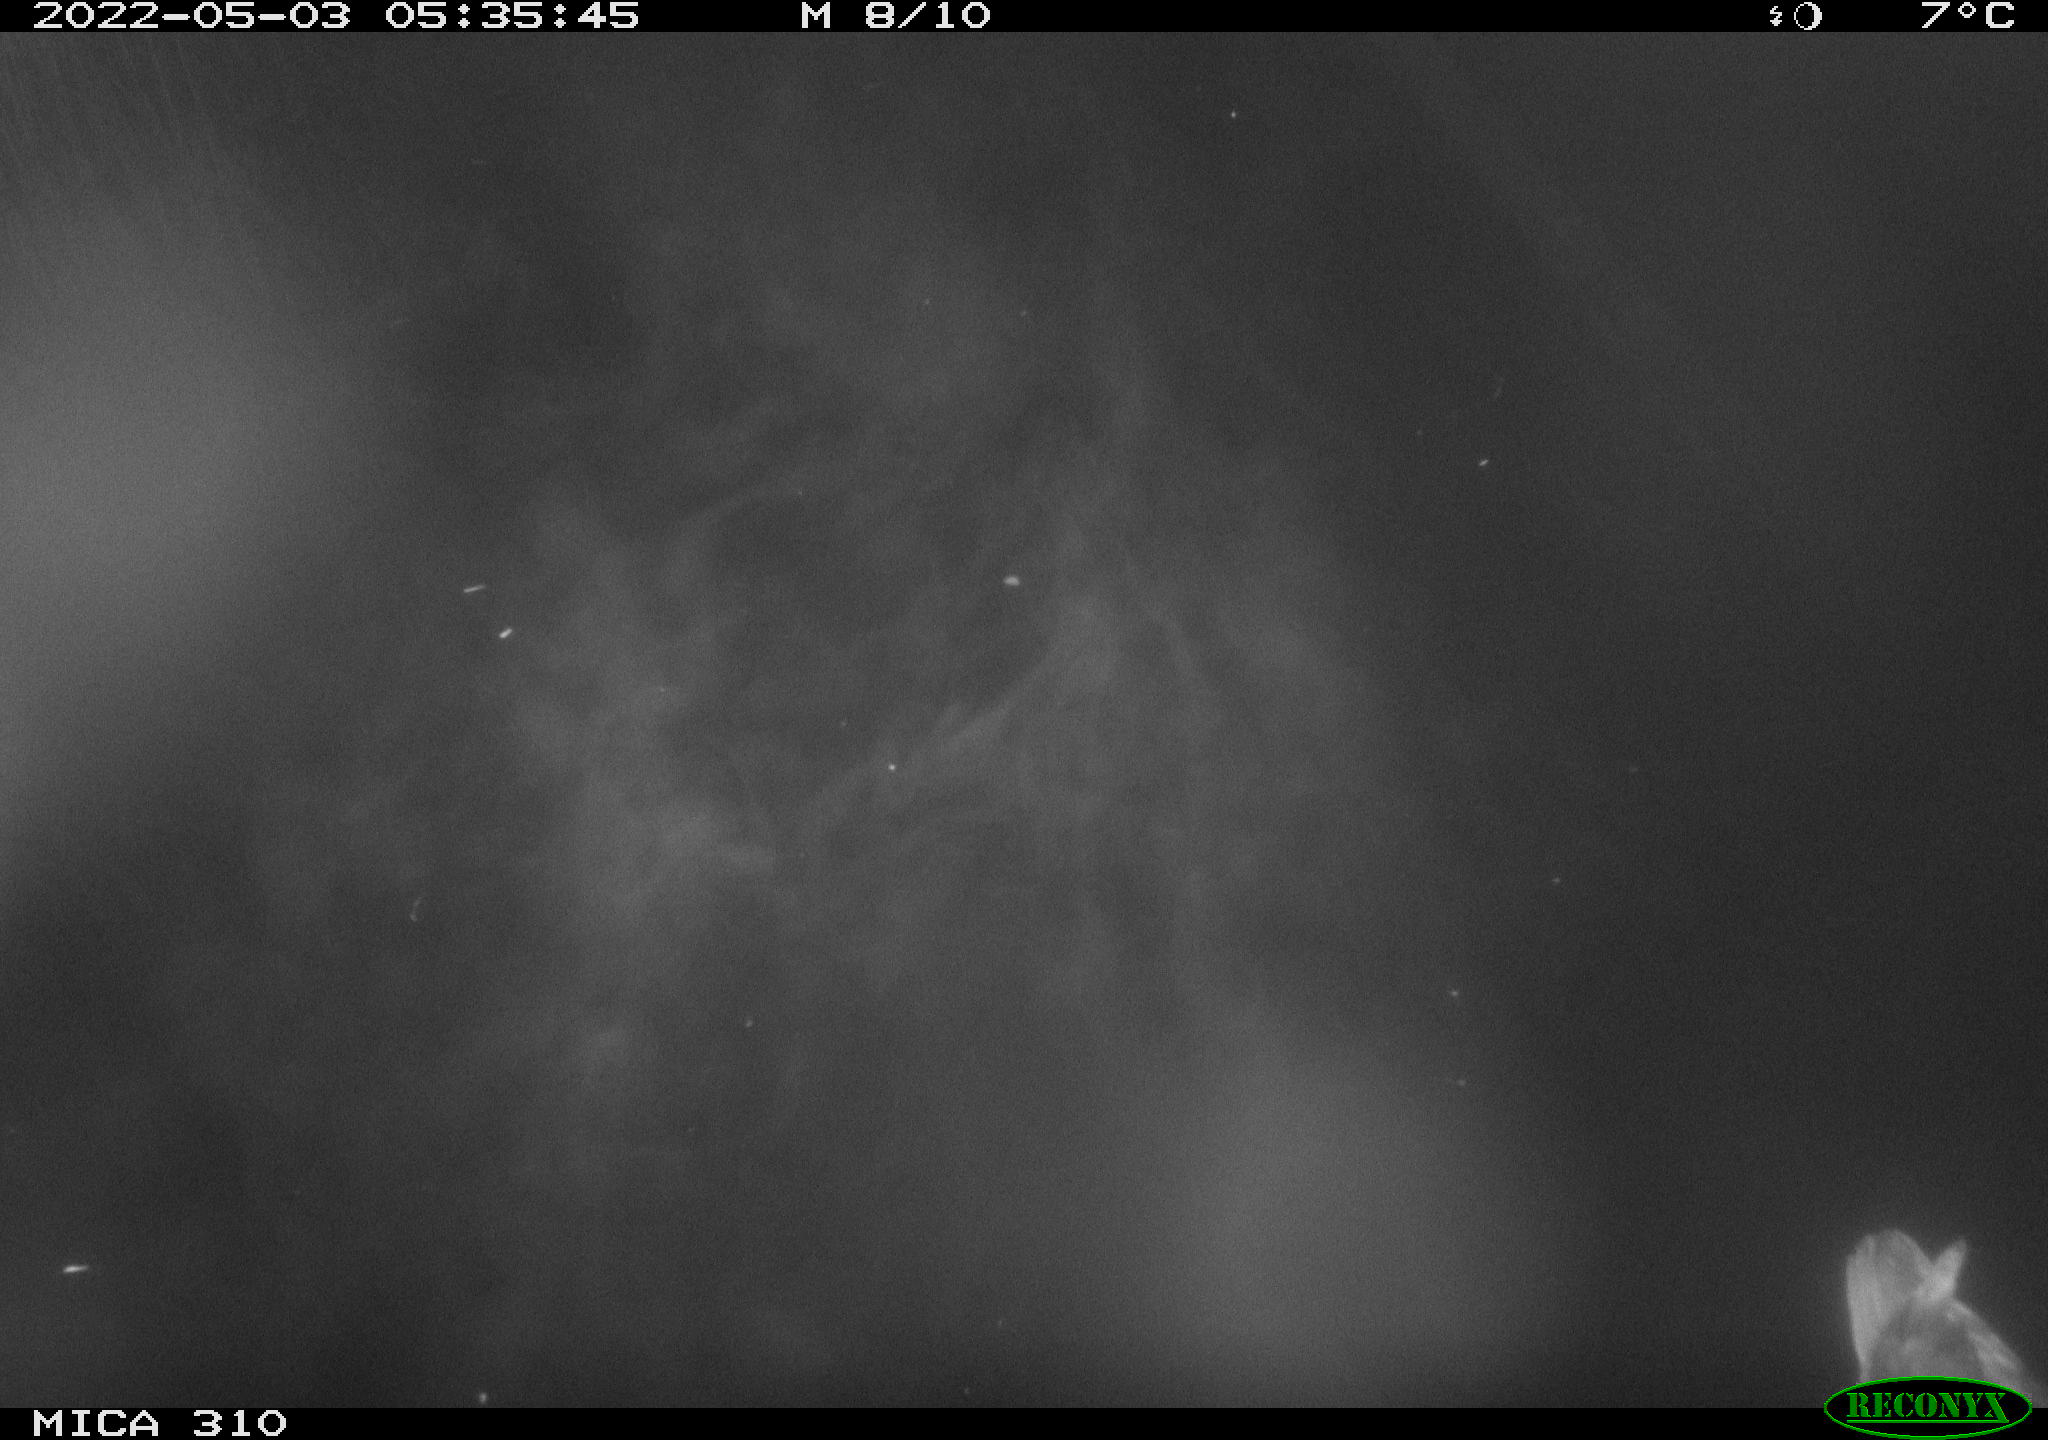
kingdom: Animalia
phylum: Chordata
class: Aves
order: Gruiformes
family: Rallidae
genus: Gallinula
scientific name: Gallinula chloropus
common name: Common moorhen
